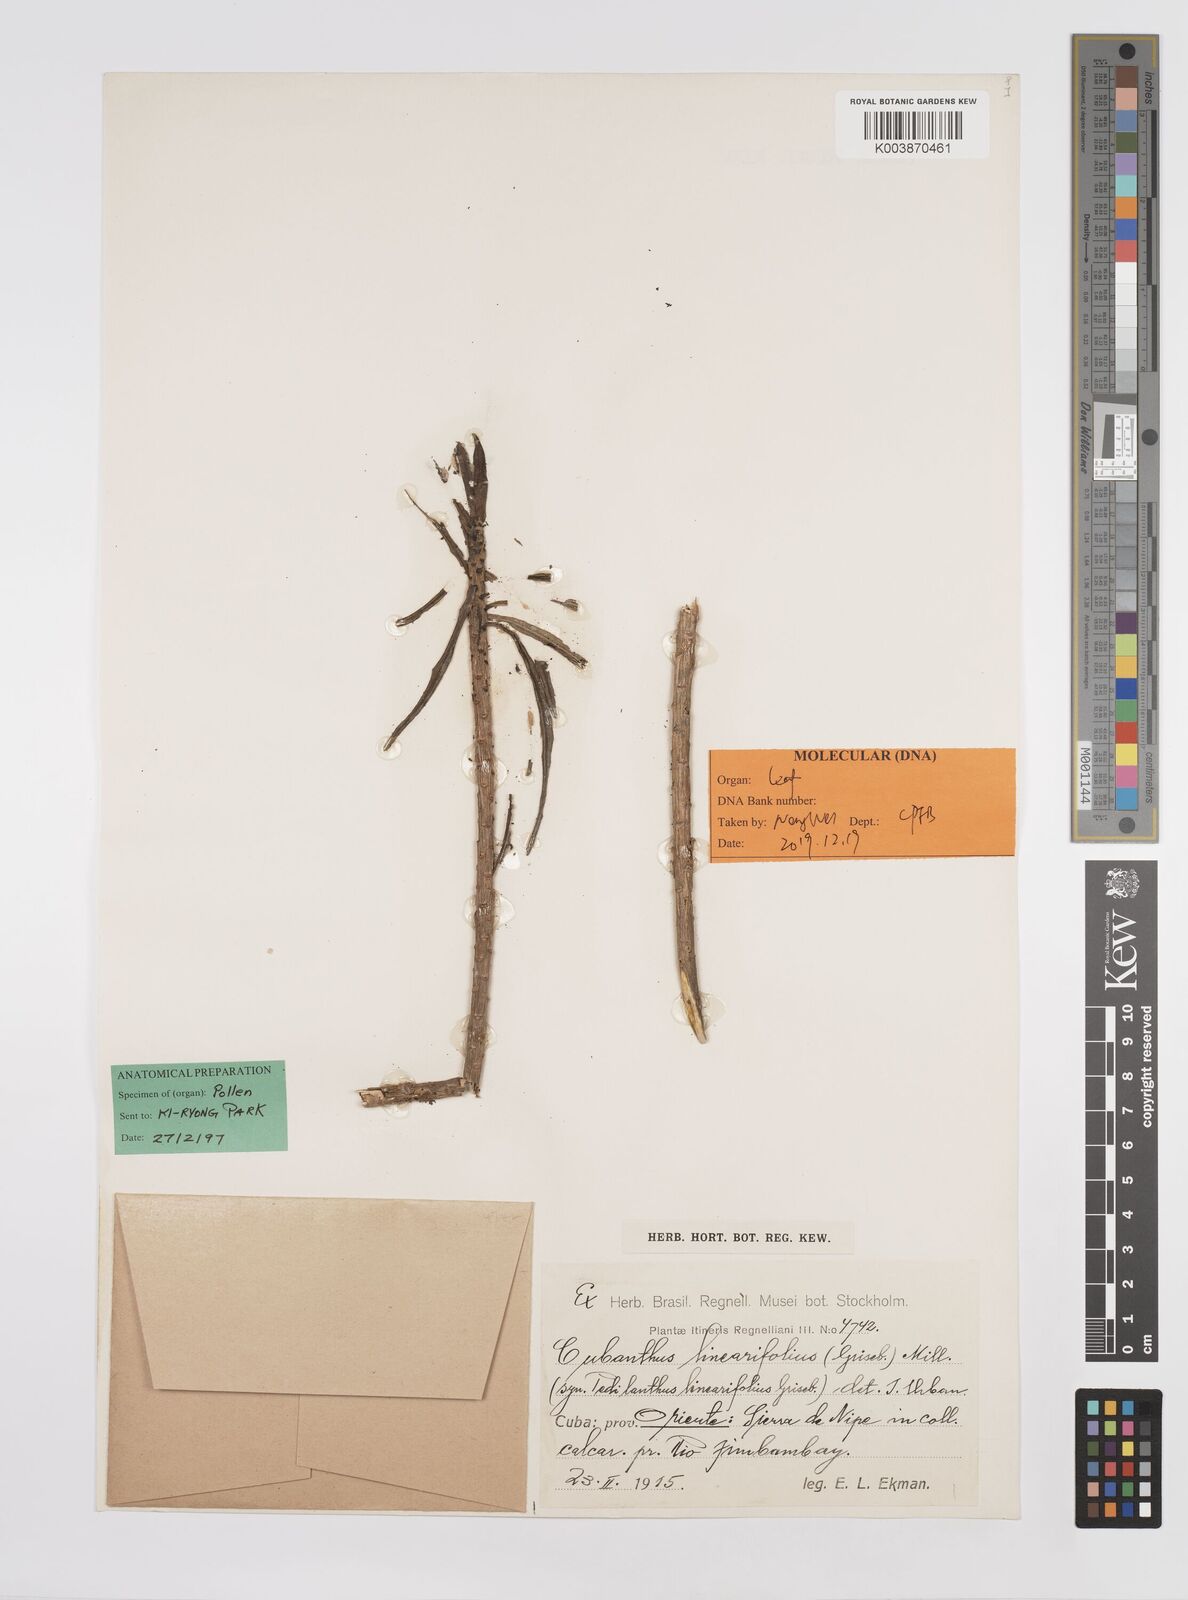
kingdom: Plantae
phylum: Tracheophyta
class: Magnoliopsida
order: Malpighiales
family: Euphorbiaceae
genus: Euphorbia
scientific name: Euphorbia scutiformis
